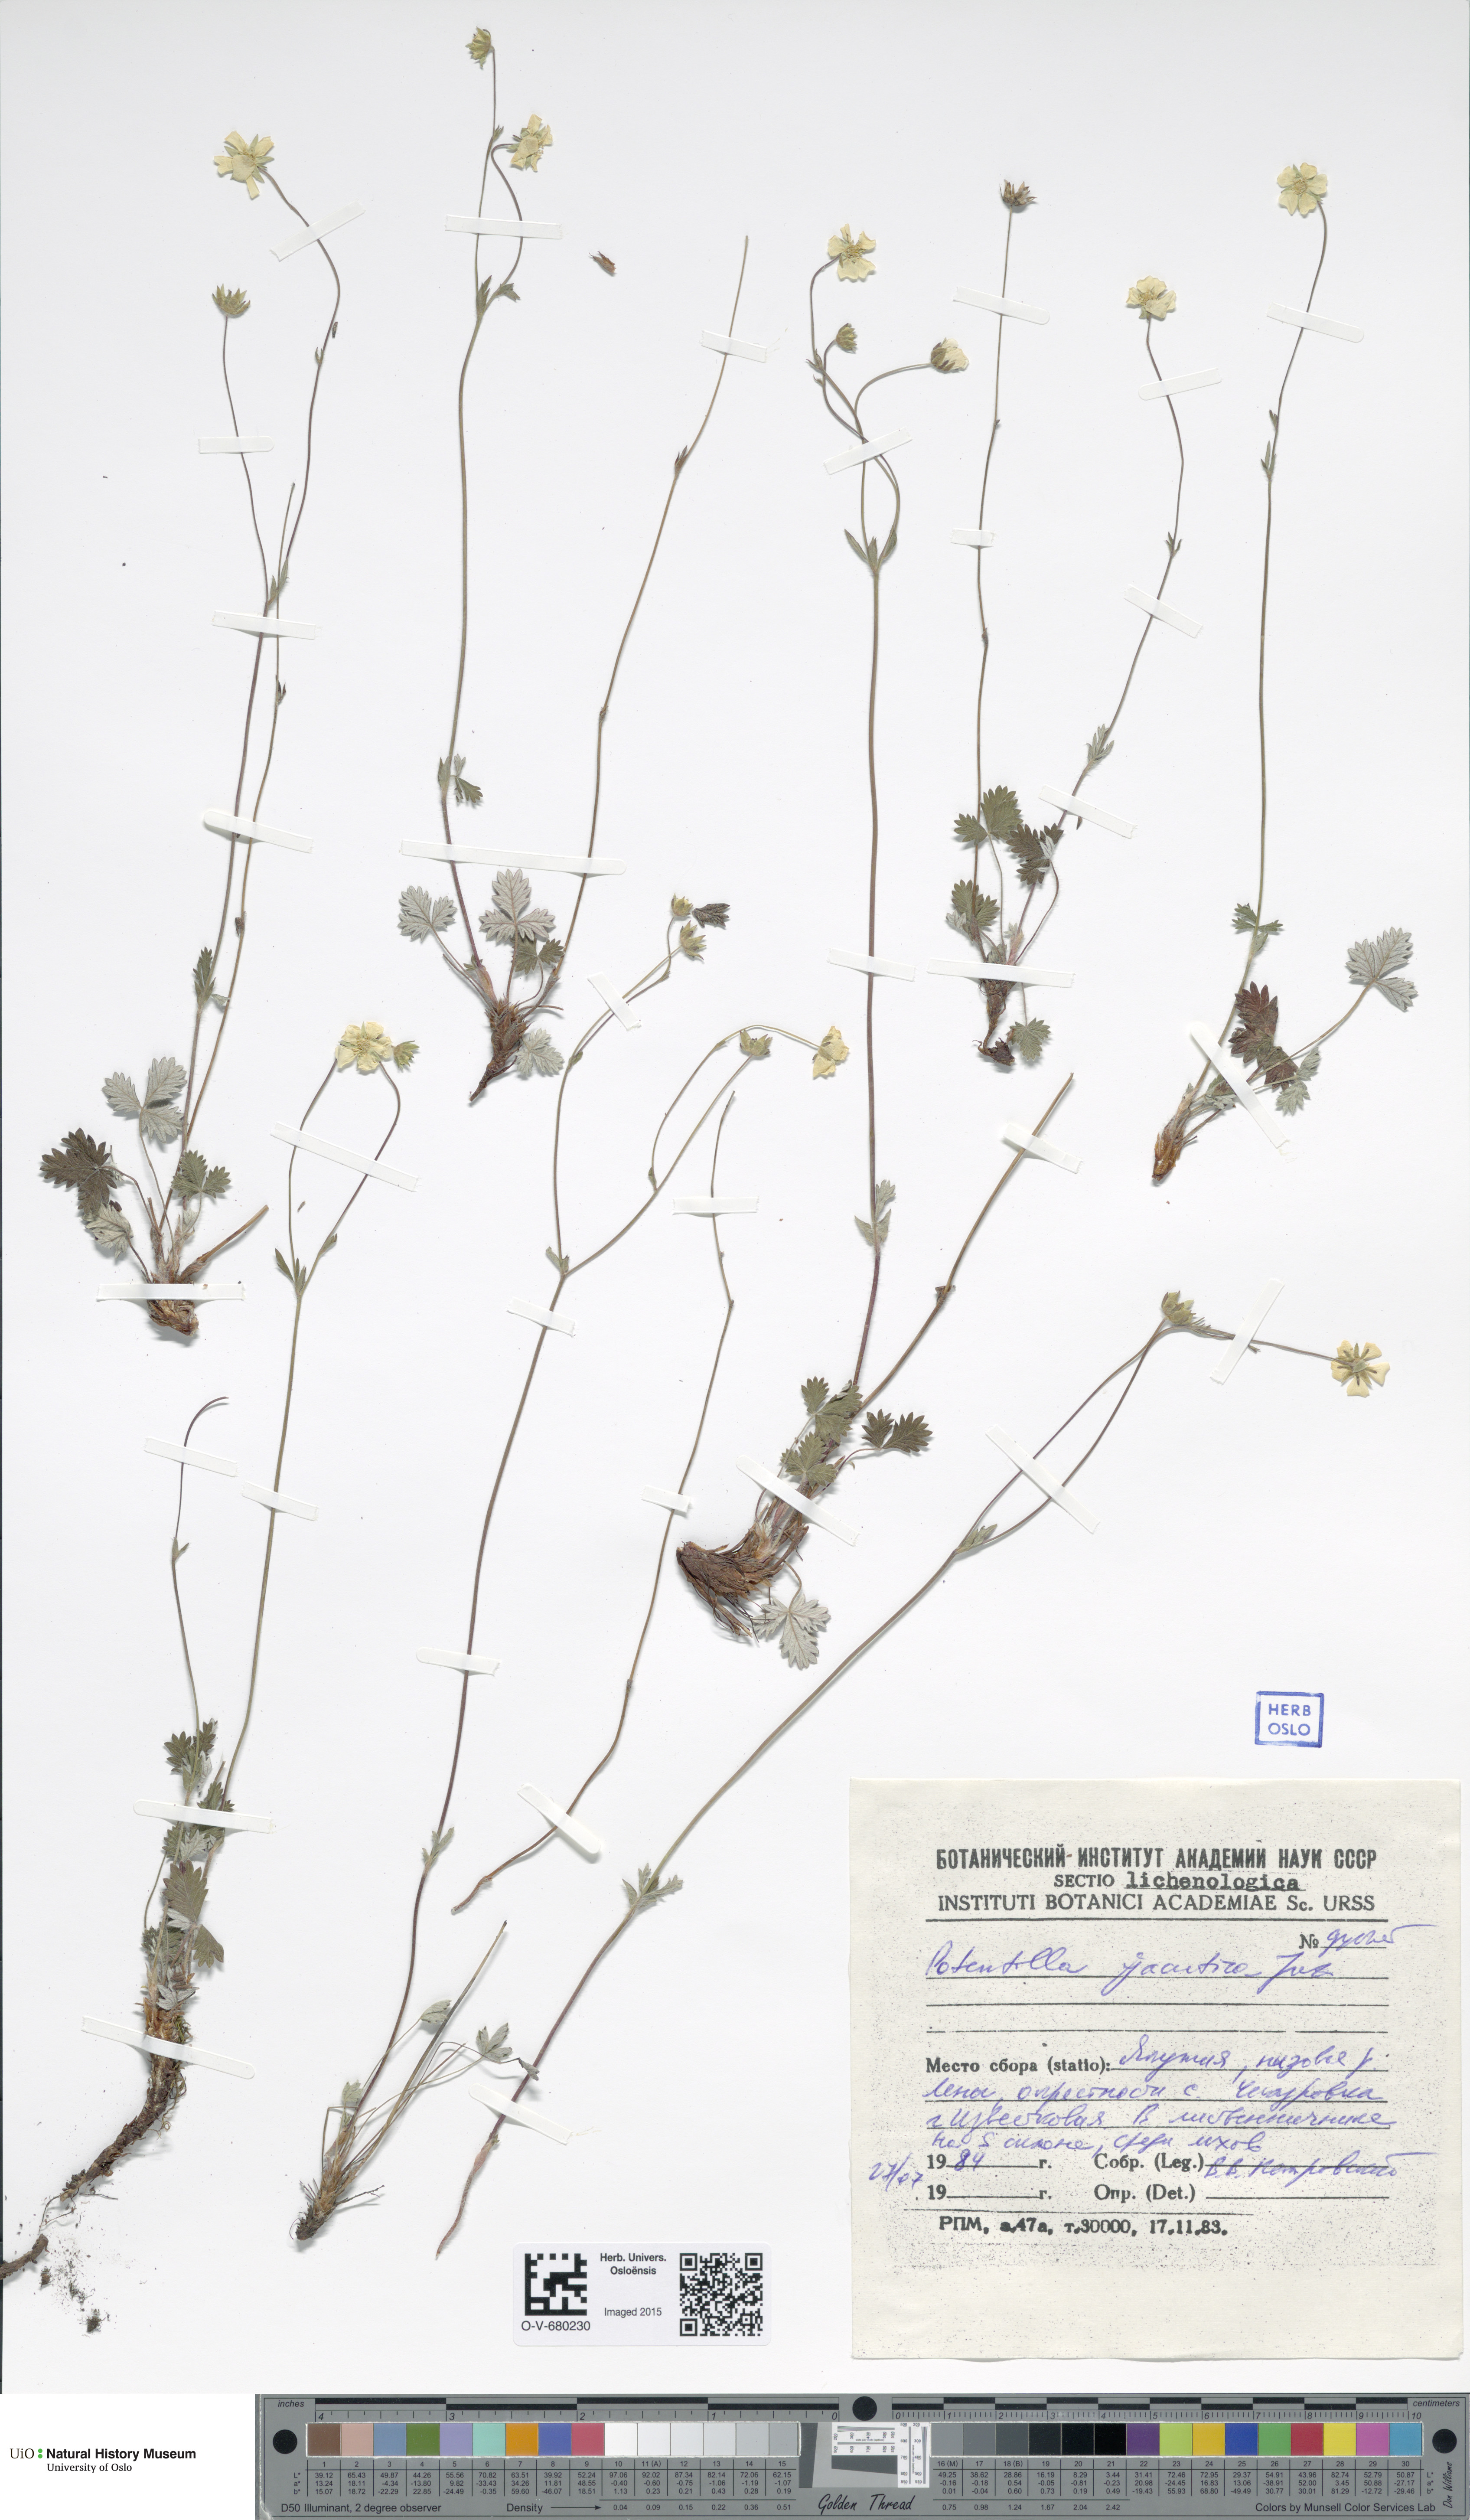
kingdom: Plantae
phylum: Tracheophyta
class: Magnoliopsida
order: Rosales
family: Rosaceae
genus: Potentilla
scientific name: Potentilla nivea
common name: Snow cinquefoil
